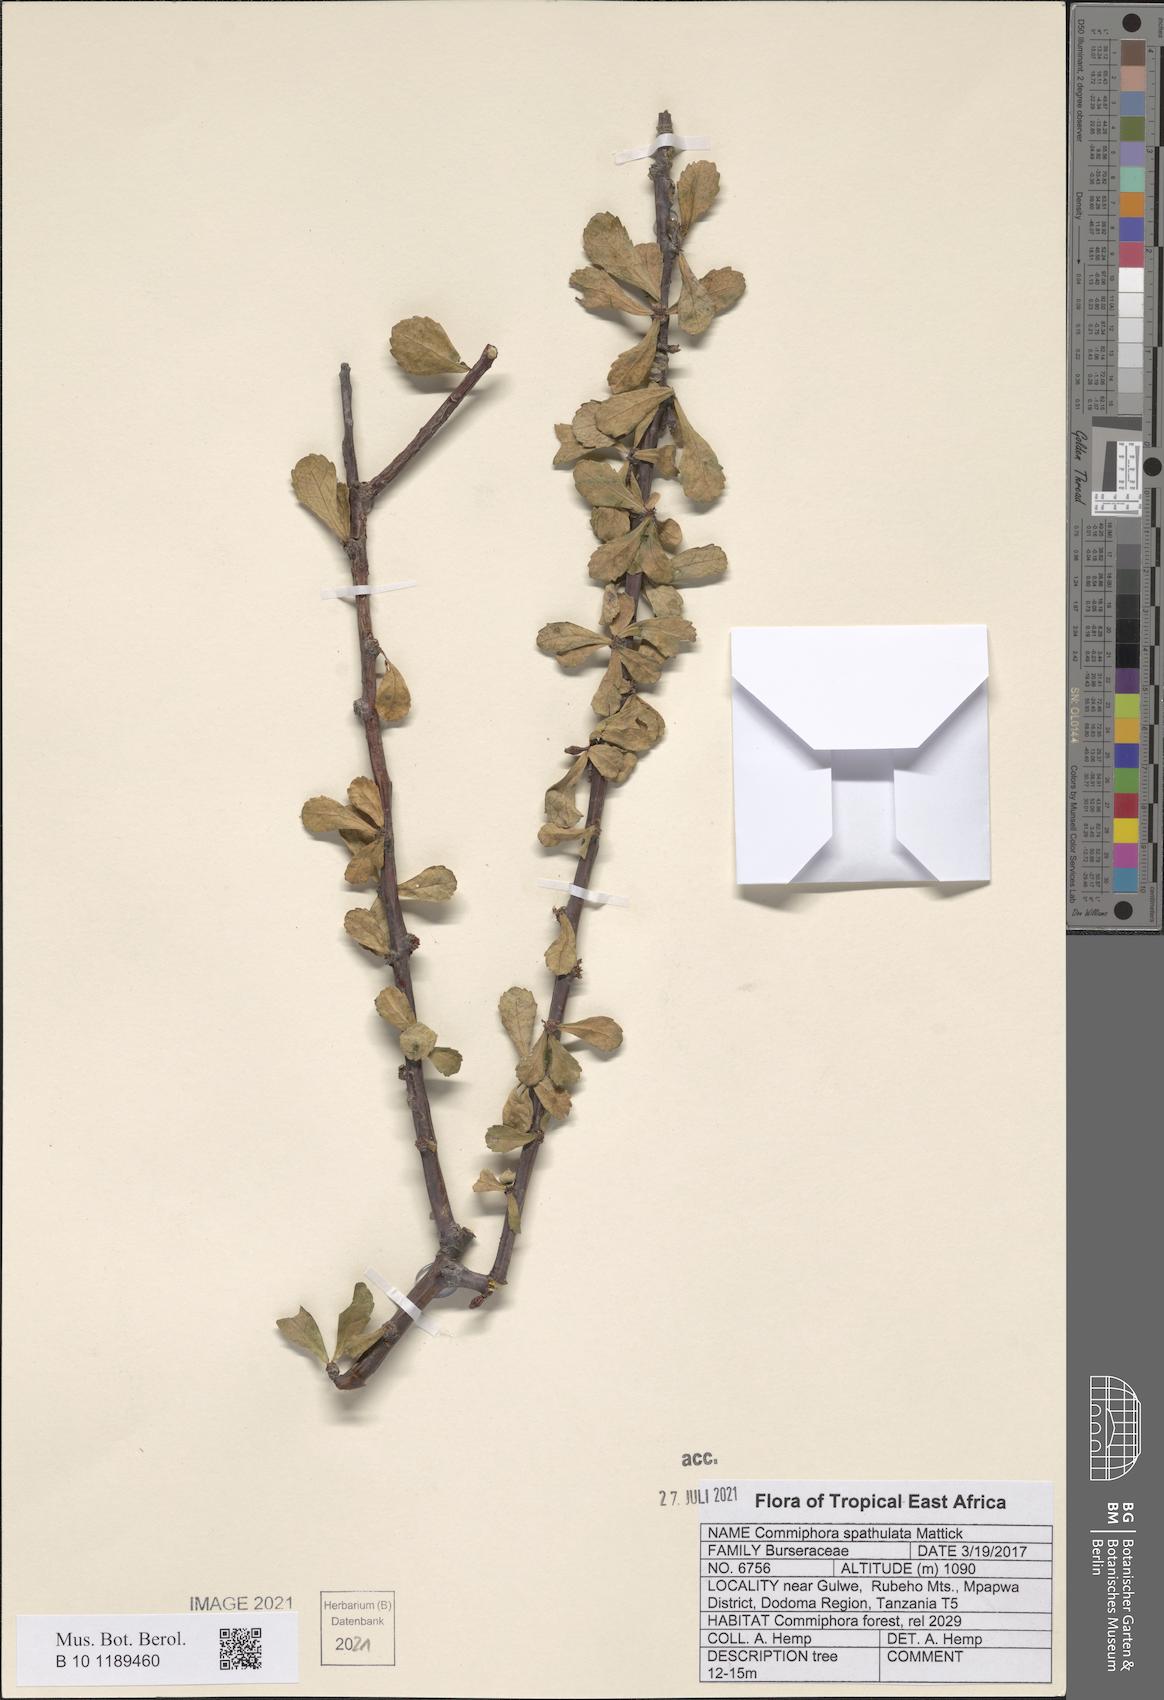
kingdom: Plantae
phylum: Tracheophyta
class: Magnoliopsida
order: Sapindales
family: Burseraceae
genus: Commiphora
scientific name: Commiphora spathulata
